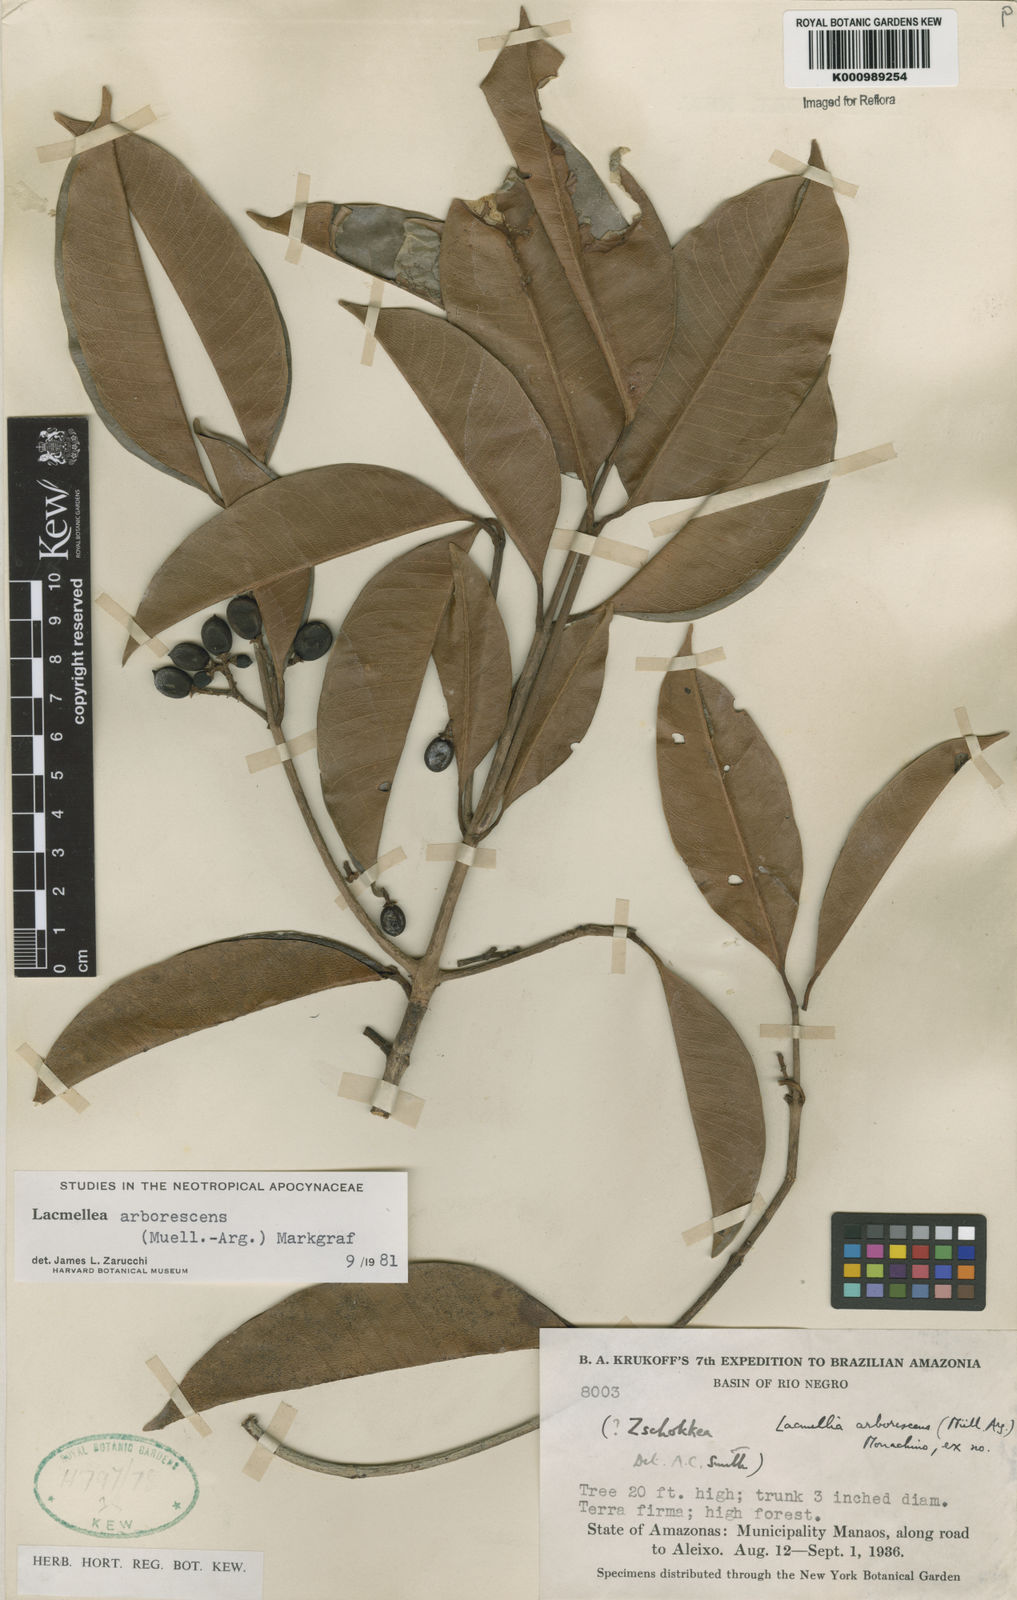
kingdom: Plantae
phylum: Tracheophyta
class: Magnoliopsida
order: Gentianales
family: Apocynaceae
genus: Lacmellea
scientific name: Lacmellea
